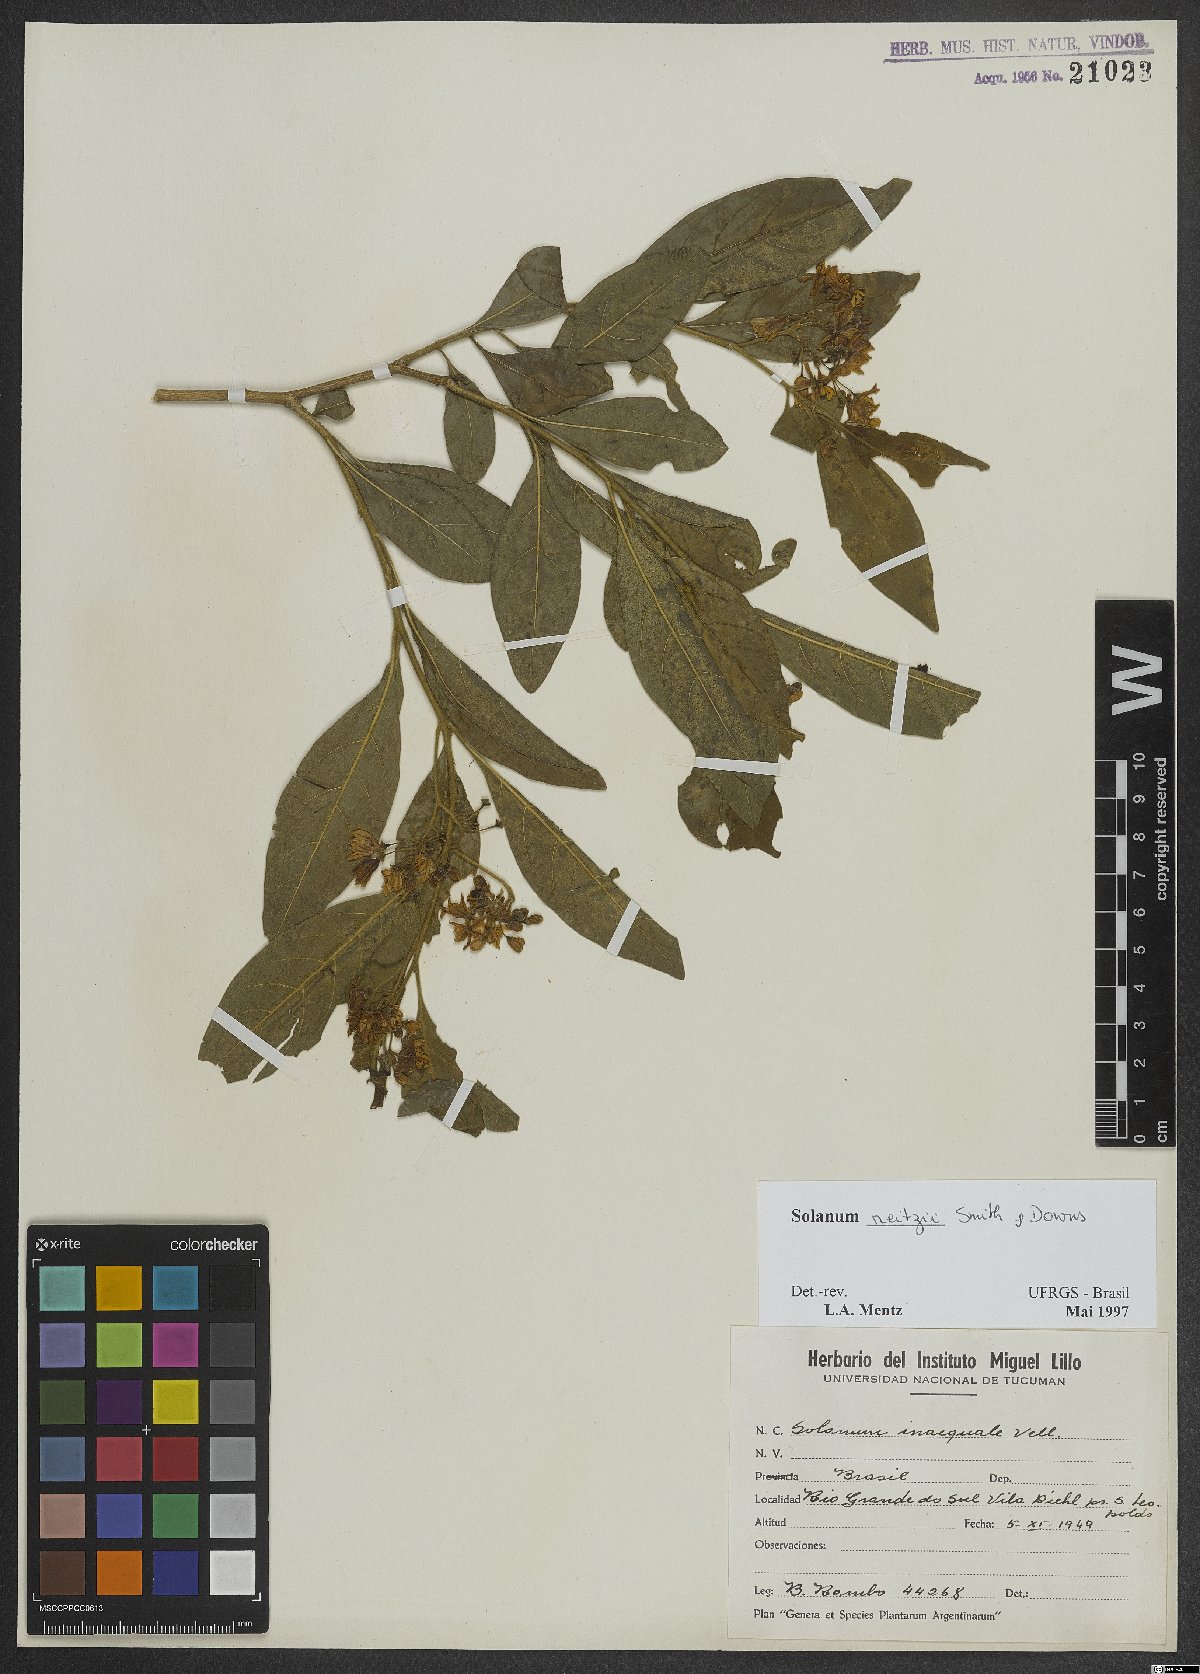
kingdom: Plantae
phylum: Tracheophyta
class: Magnoliopsida
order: Solanales
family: Solanaceae
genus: Solanum
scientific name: Solanum reitzii
